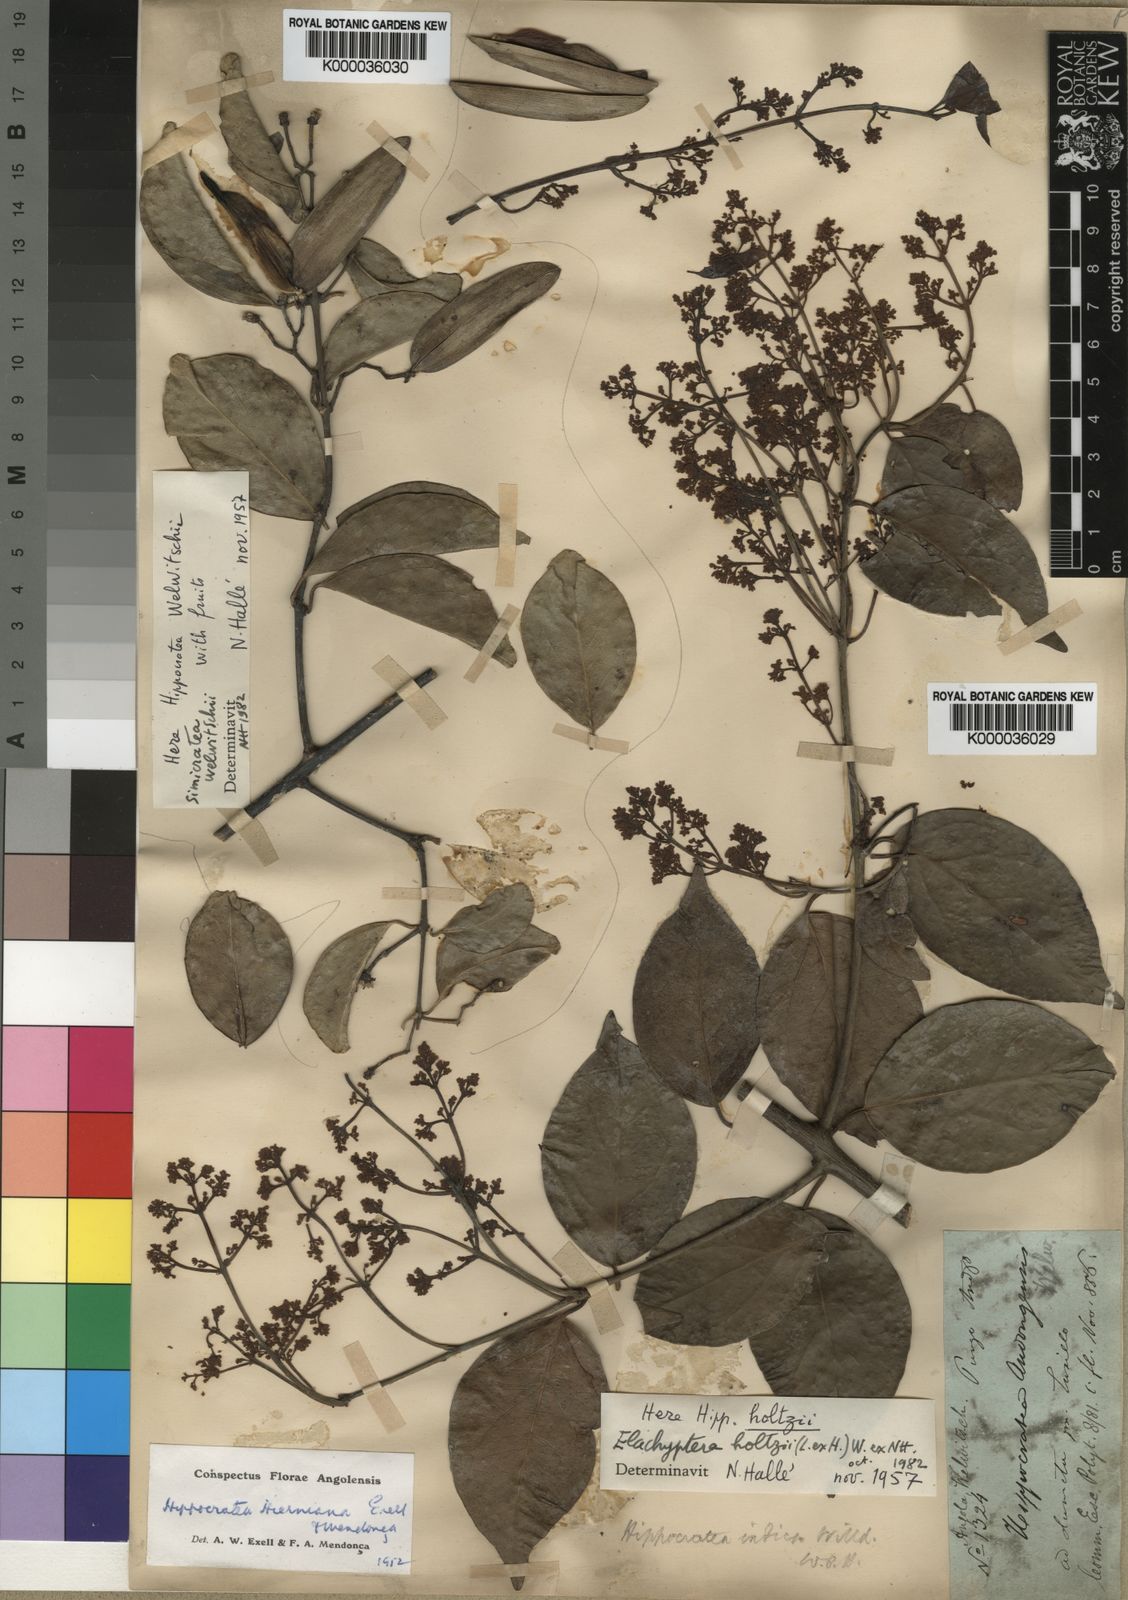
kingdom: Plantae
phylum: Tracheophyta
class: Magnoliopsida
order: Celastrales
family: Celastraceae
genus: Elachyptera
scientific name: Elachyptera
